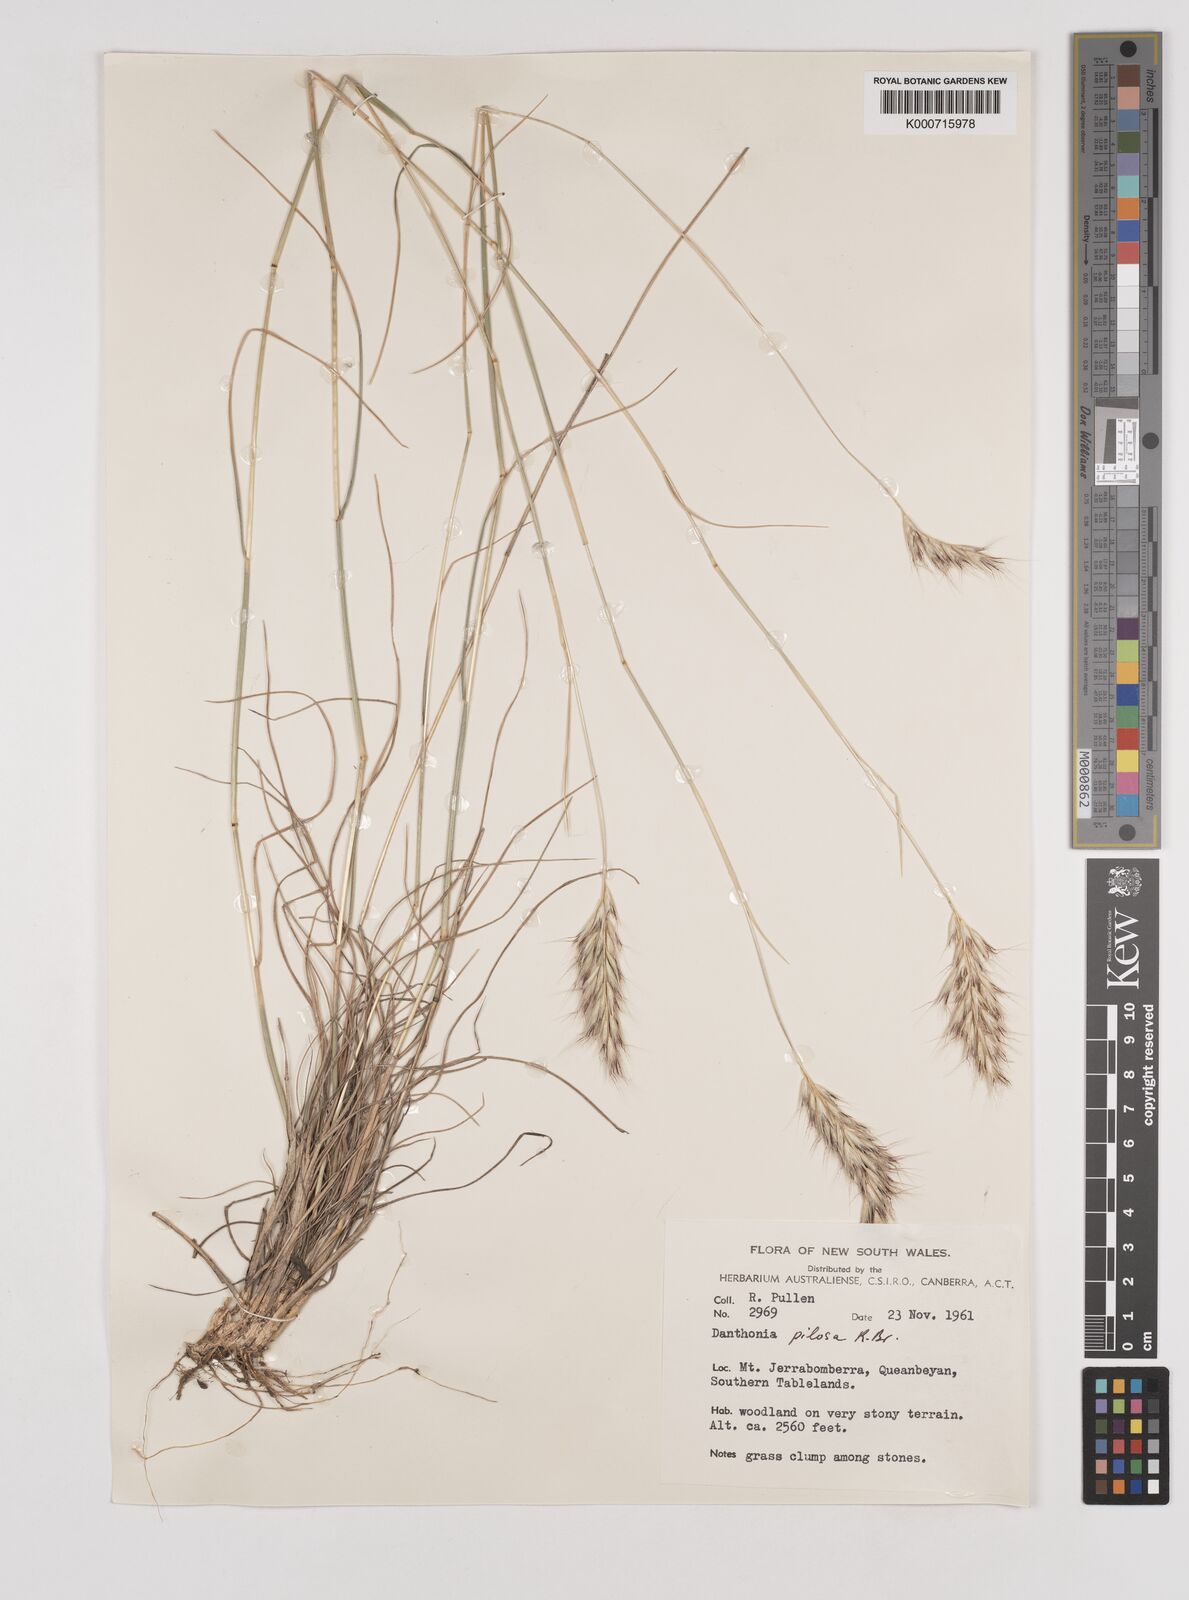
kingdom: Plantae
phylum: Tracheophyta
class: Liliopsida
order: Poales
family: Poaceae
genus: Rytidosperma
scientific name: Rytidosperma pilosum
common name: Hairy wallaby grass
